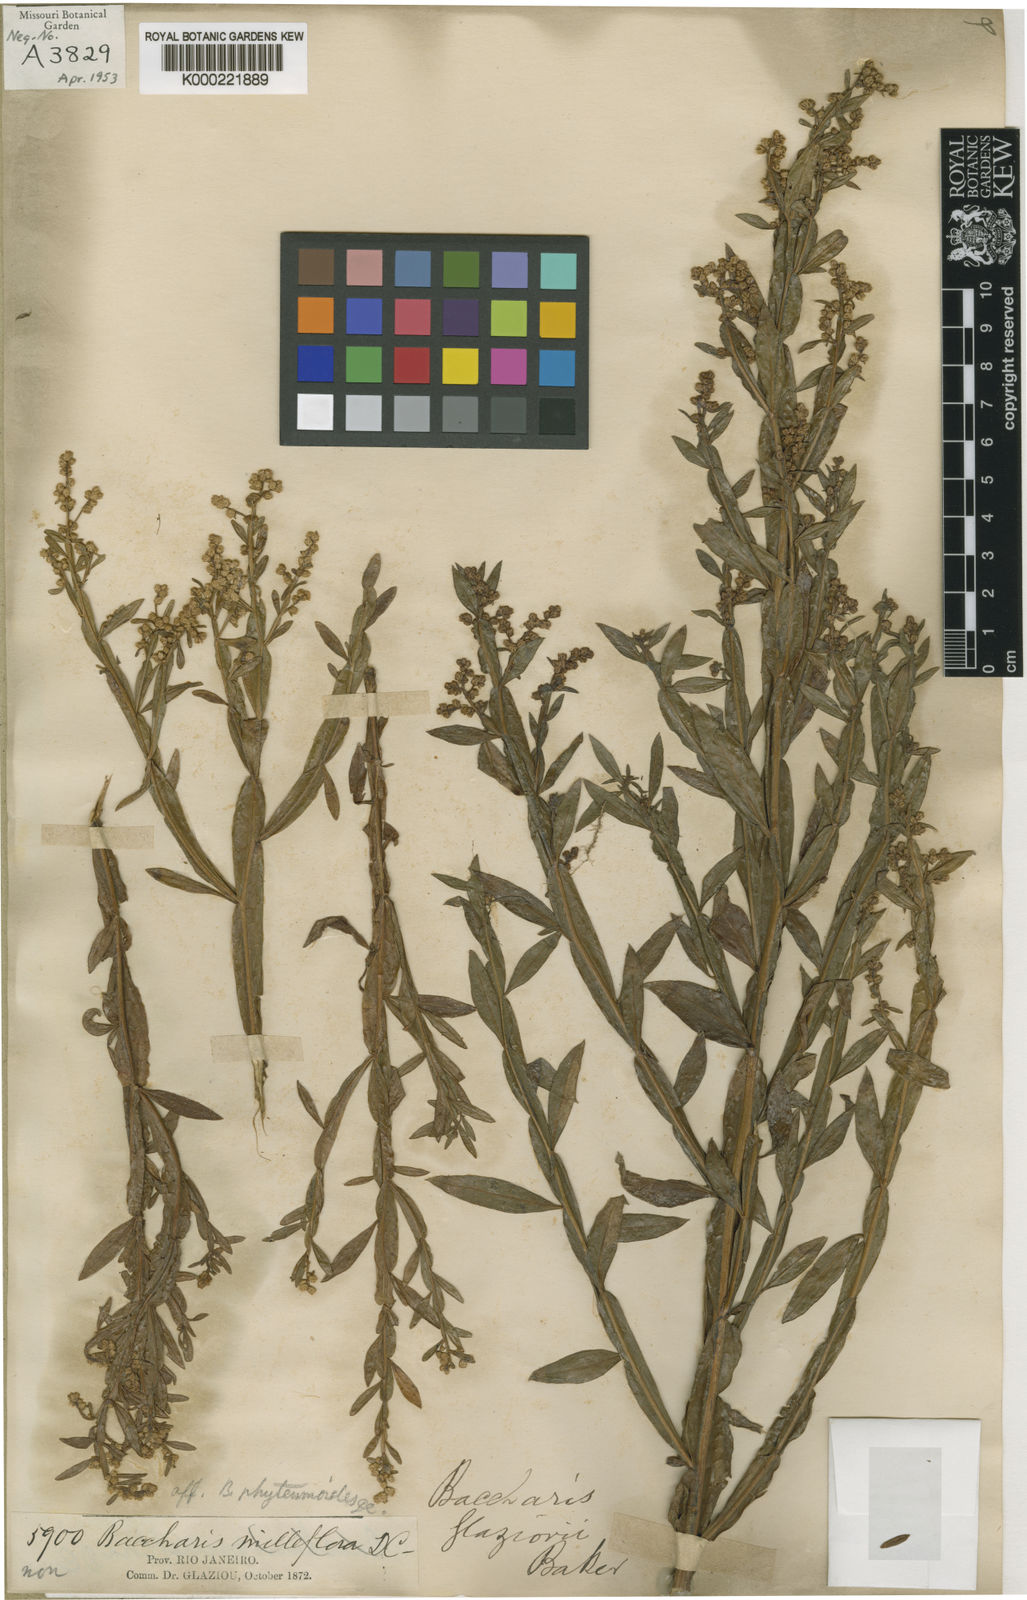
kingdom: Plantae
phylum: Tracheophyta
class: Magnoliopsida
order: Asterales
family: Asteraceae
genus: Baccharis
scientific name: Baccharis glaziovii
